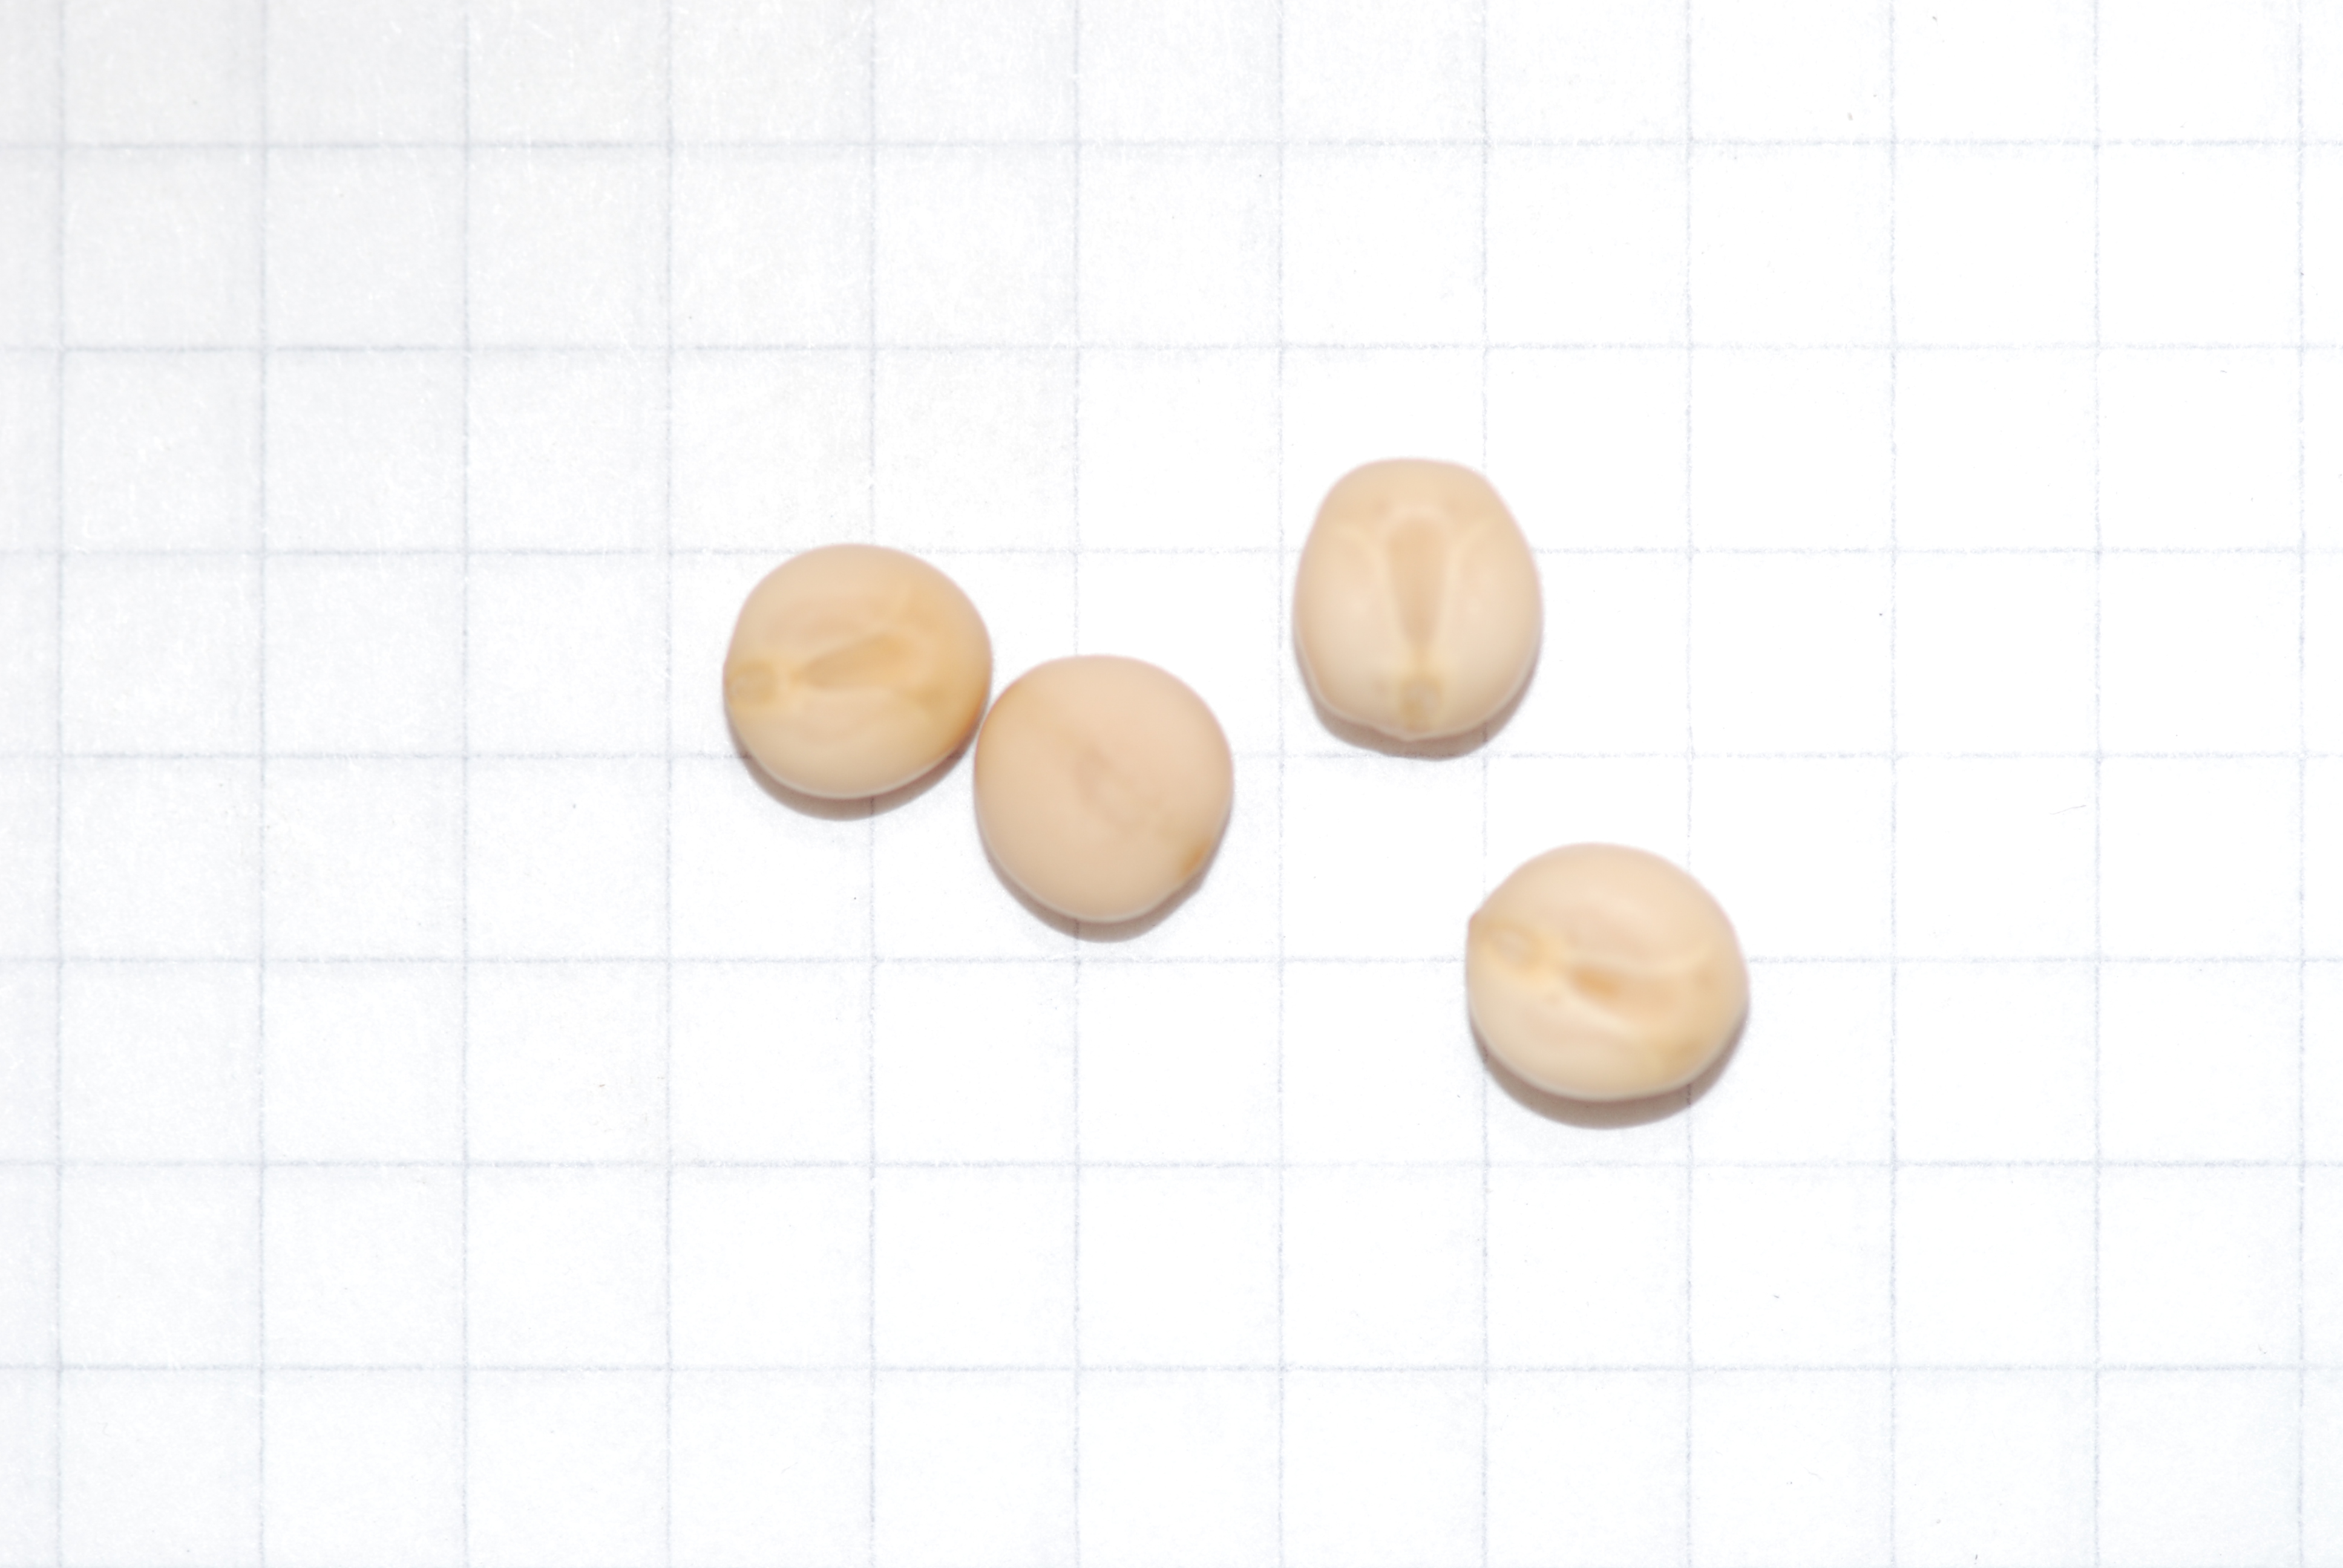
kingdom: Plantae
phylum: Tracheophyta
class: Magnoliopsida
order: Fabales
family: Fabaceae
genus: Lathyrus
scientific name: Lathyrus oleraceus
